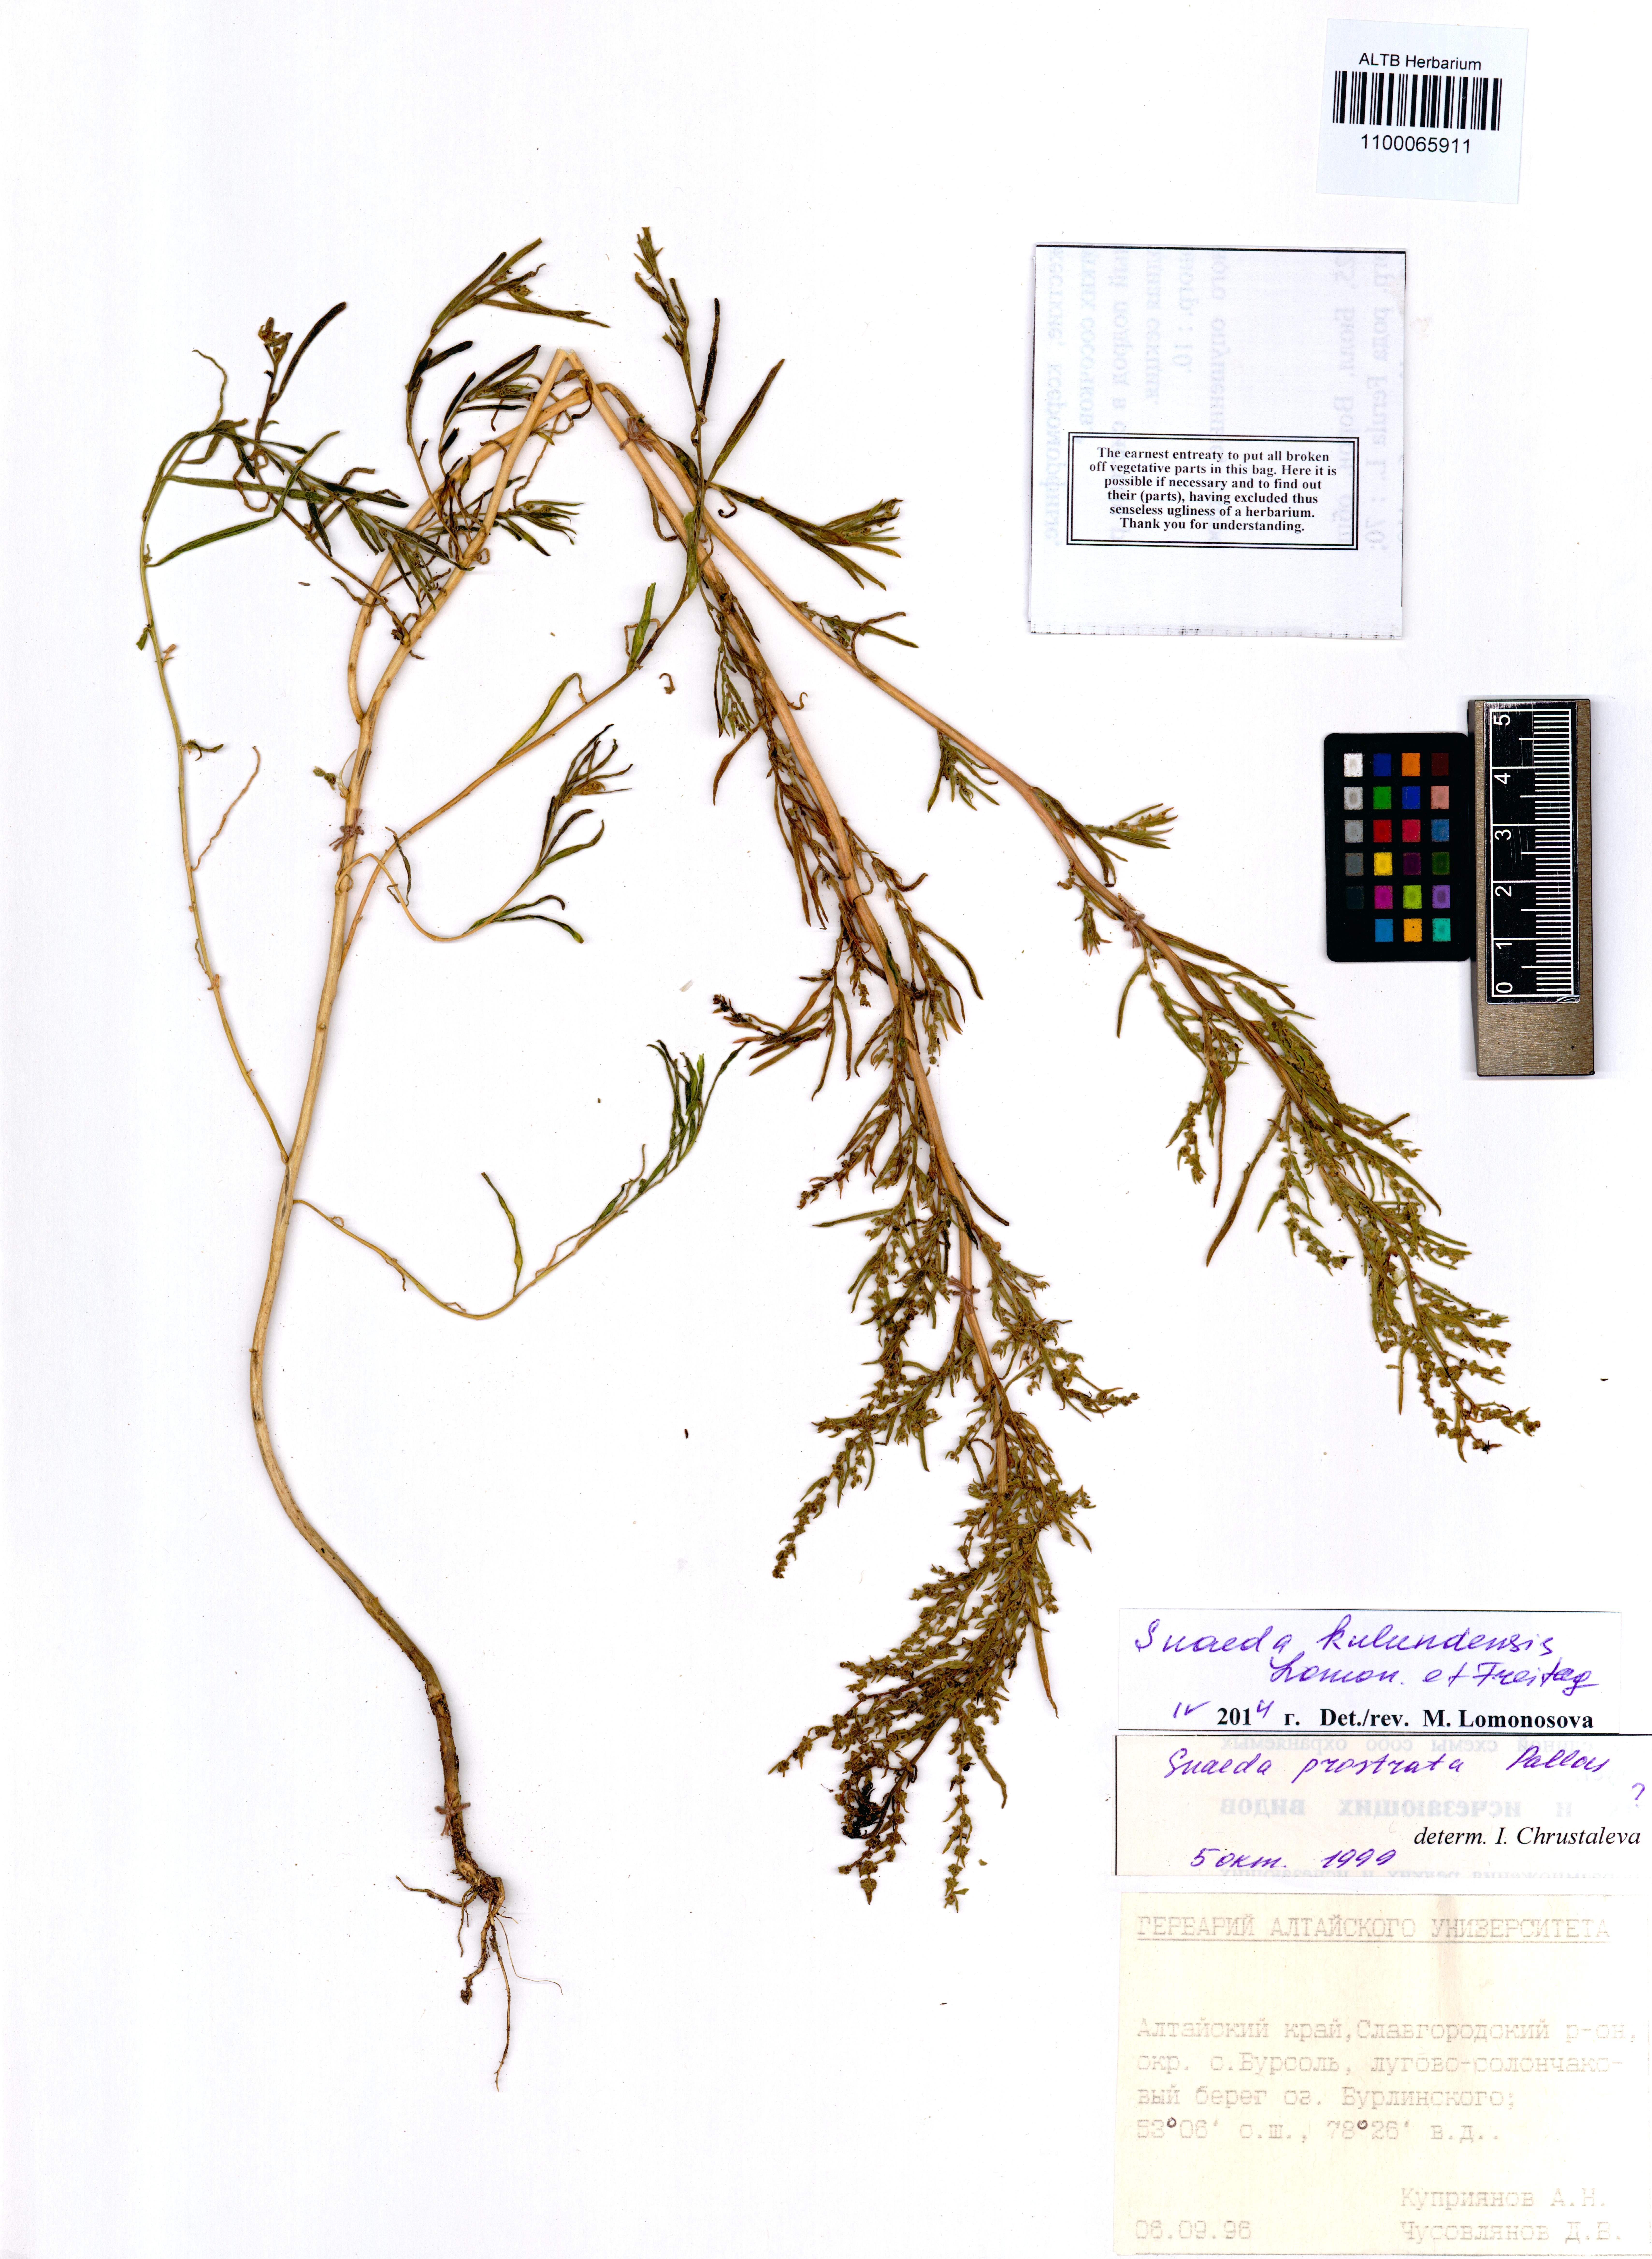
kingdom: Plantae
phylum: Tracheophyta
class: Magnoliopsida
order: Caryophyllales
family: Amaranthaceae
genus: Suaeda
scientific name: Suaeda kulundensis
